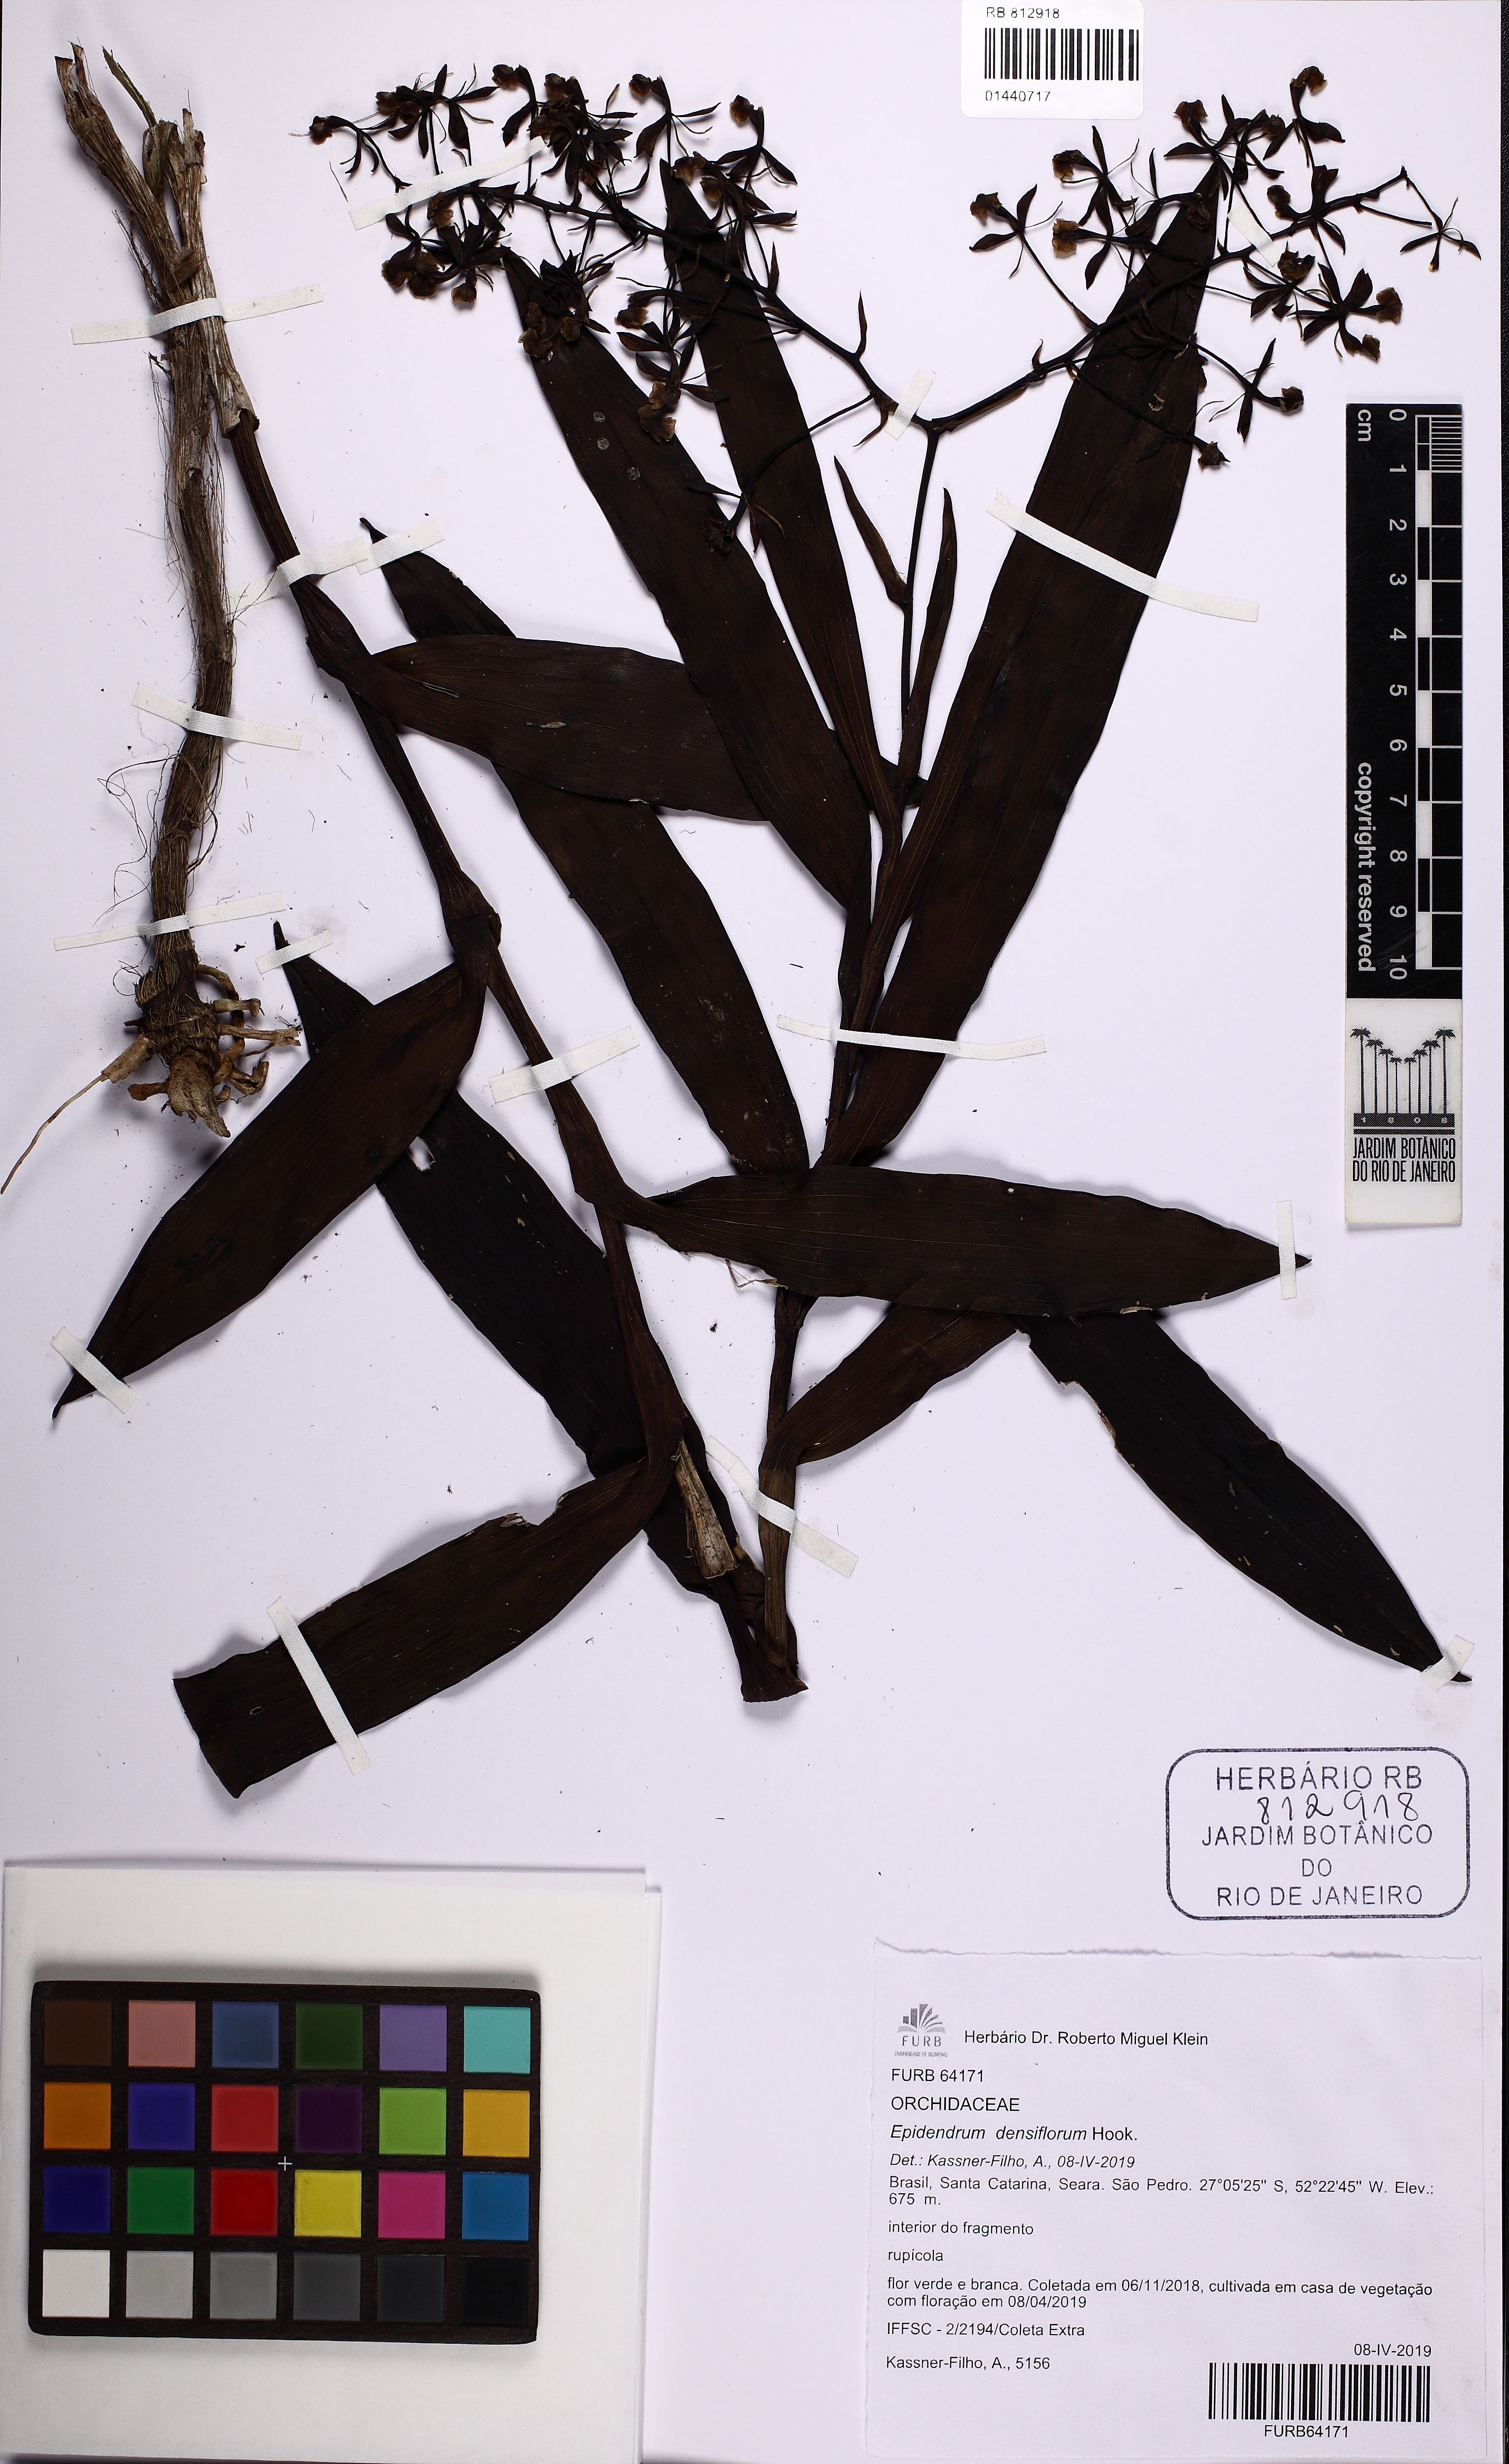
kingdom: Plantae
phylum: Tracheophyta
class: Liliopsida
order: Asparagales
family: Orchidaceae
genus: Epidendrum
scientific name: Epidendrum densiflorum
